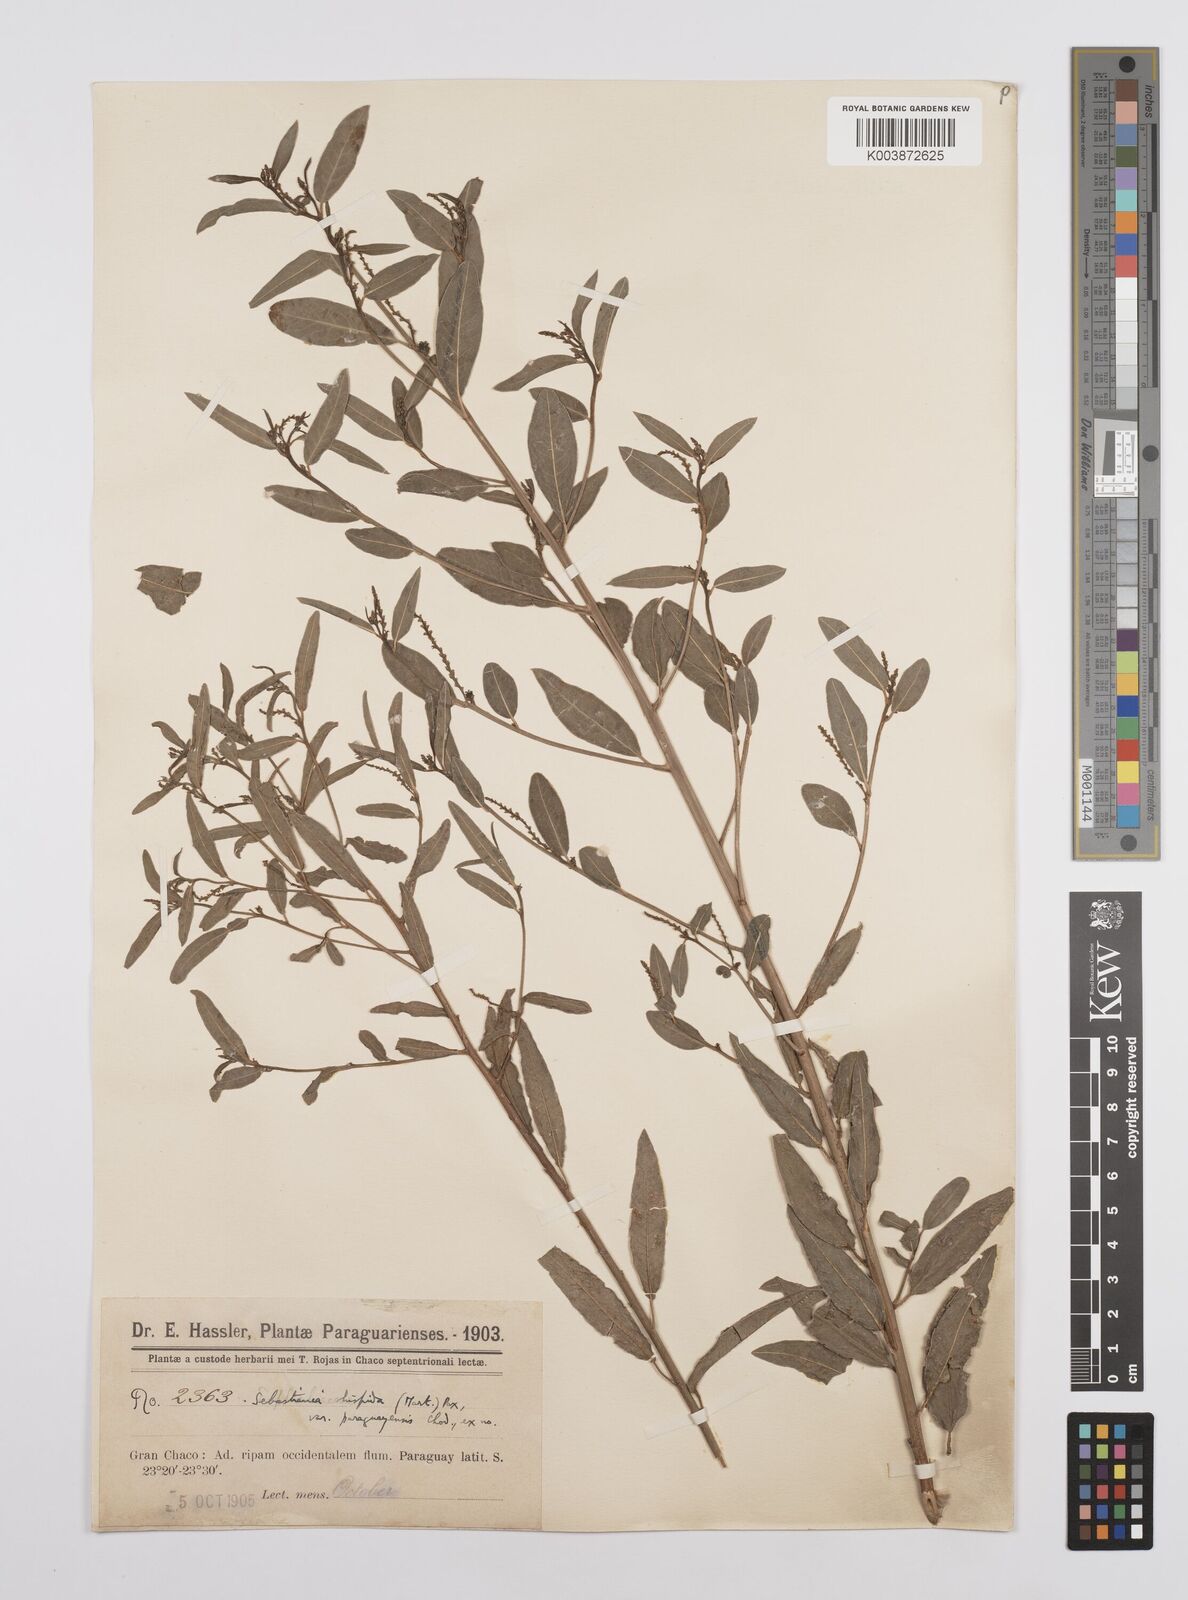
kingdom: Plantae
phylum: Tracheophyta
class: Magnoliopsida
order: Malpighiales
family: Euphorbiaceae
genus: Microstachys
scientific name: Microstachys hispida
